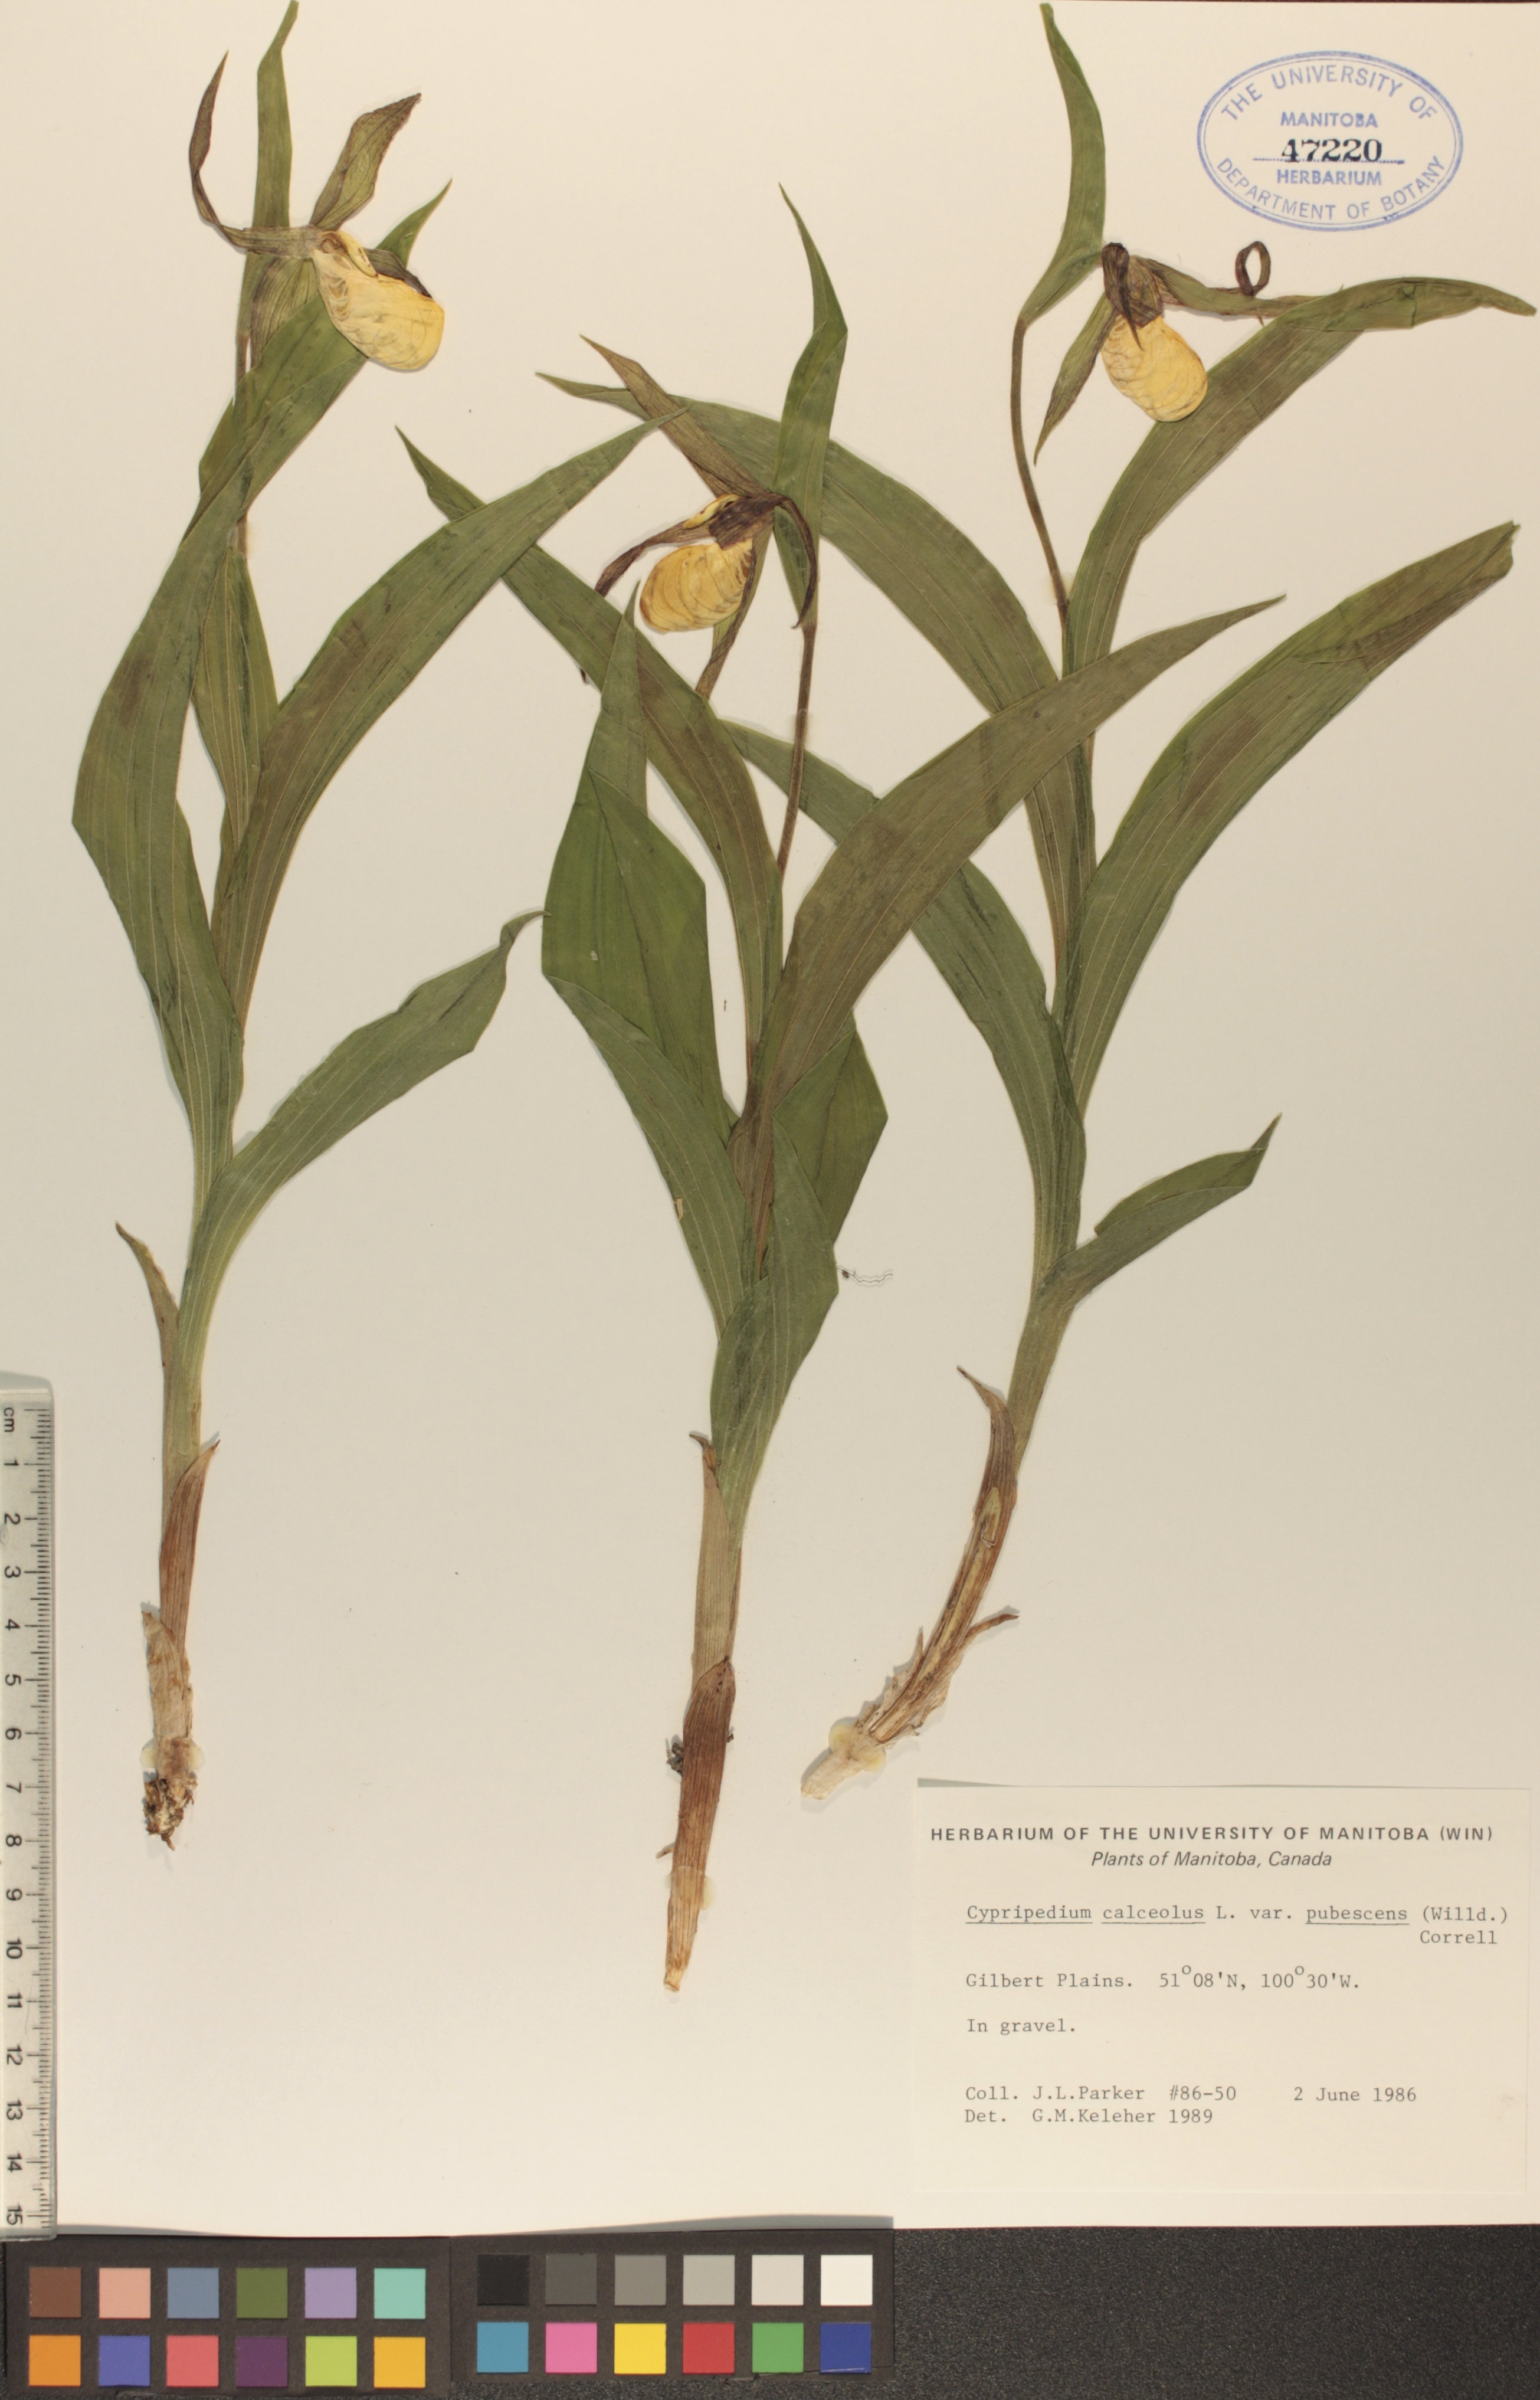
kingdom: Plantae
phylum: Tracheophyta
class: Liliopsida
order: Asparagales
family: Orchidaceae
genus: Cypripedium
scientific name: Cypripedium parviflorum
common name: American yellow lady's-slipper
